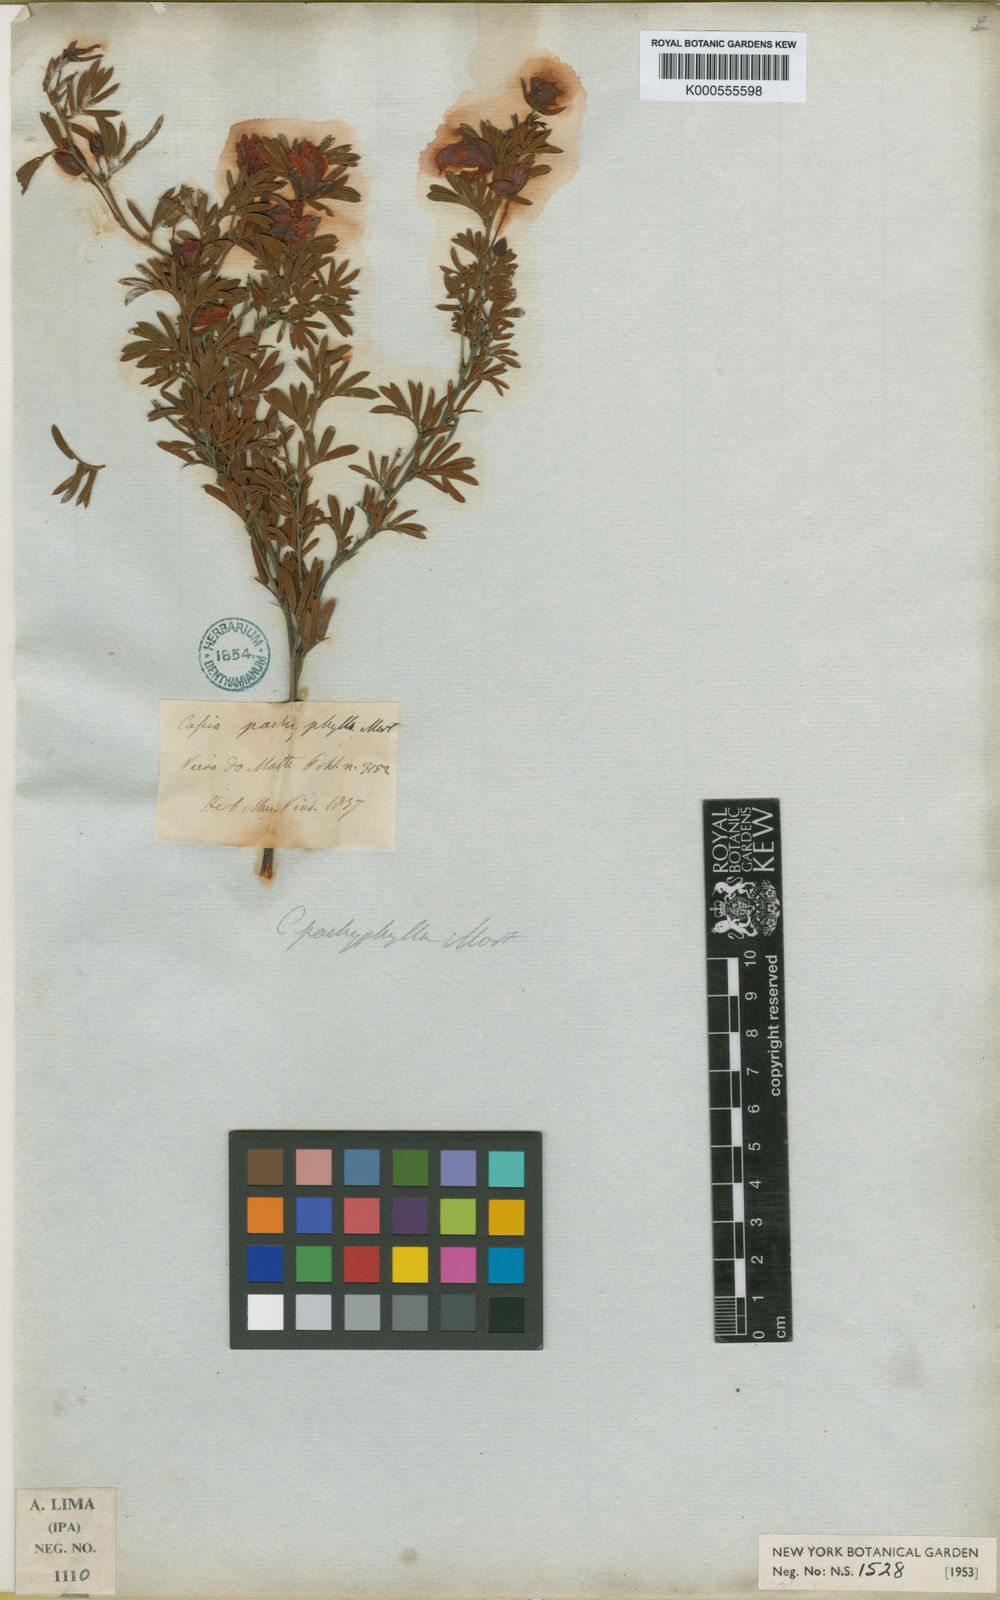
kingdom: Plantae
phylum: Tracheophyta
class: Magnoliopsida
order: Fabales
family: Fabaceae
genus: Chamaecrista
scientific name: Chamaecrista tragacanthoides
